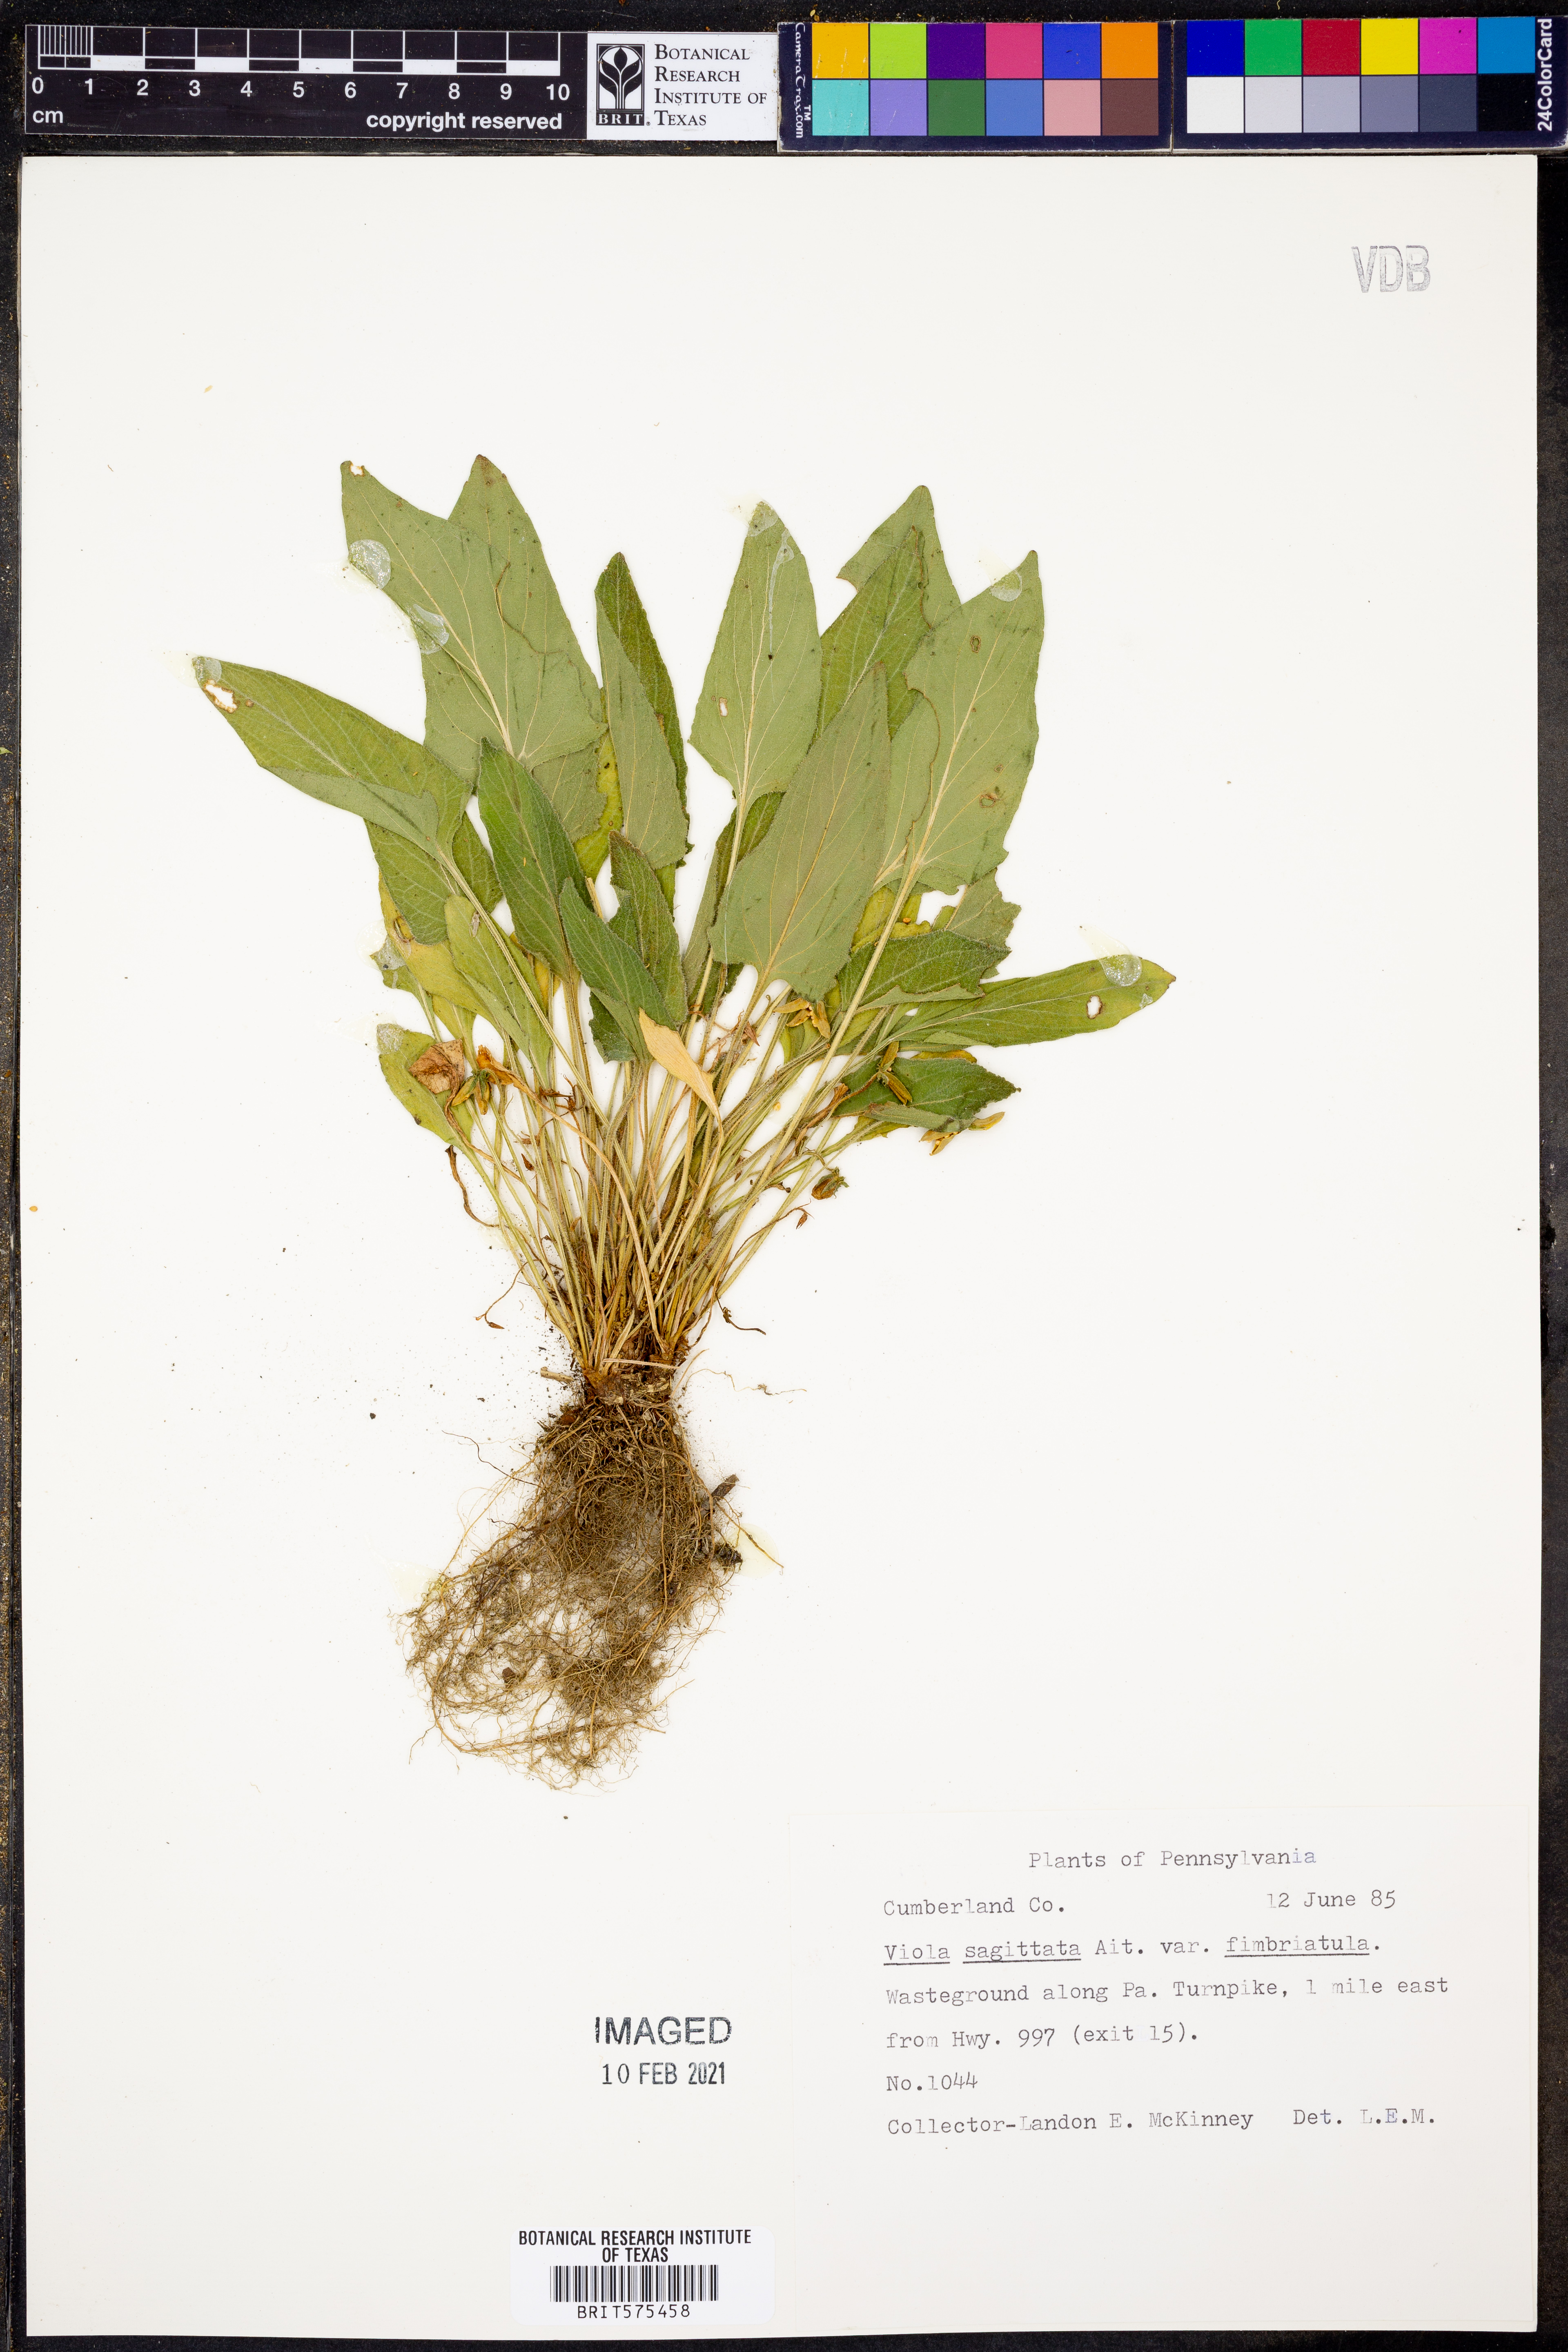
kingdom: Plantae
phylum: Tracheophyta
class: Magnoliopsida
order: Malpighiales
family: Violaceae
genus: Viola
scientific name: Viola sagittata
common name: Arrowhead violet
